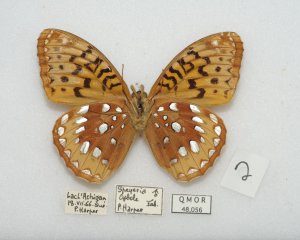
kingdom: Animalia
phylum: Arthropoda
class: Insecta
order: Lepidoptera
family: Nymphalidae
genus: Speyeria
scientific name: Speyeria cybele
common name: Great Spangled Fritillary
